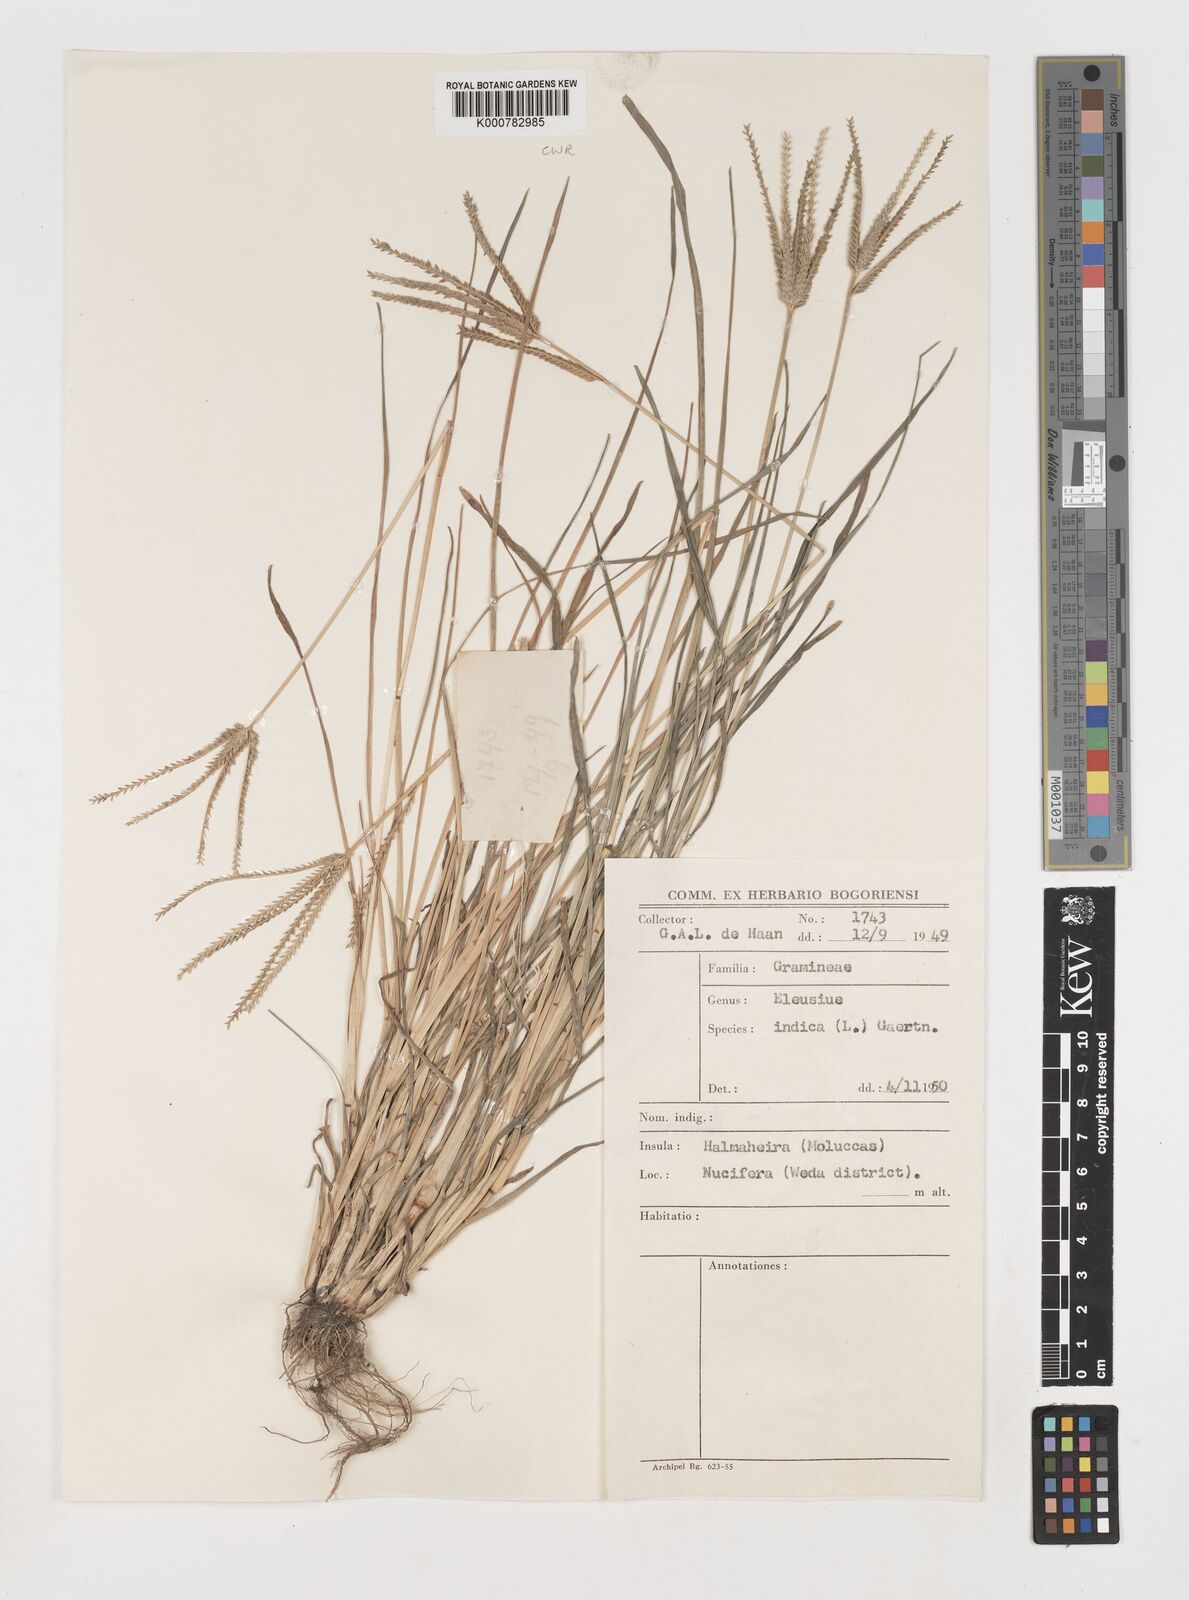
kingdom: Plantae
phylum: Tracheophyta
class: Liliopsida
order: Poales
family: Poaceae
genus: Eleusine
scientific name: Eleusine indica
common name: Yard-grass
